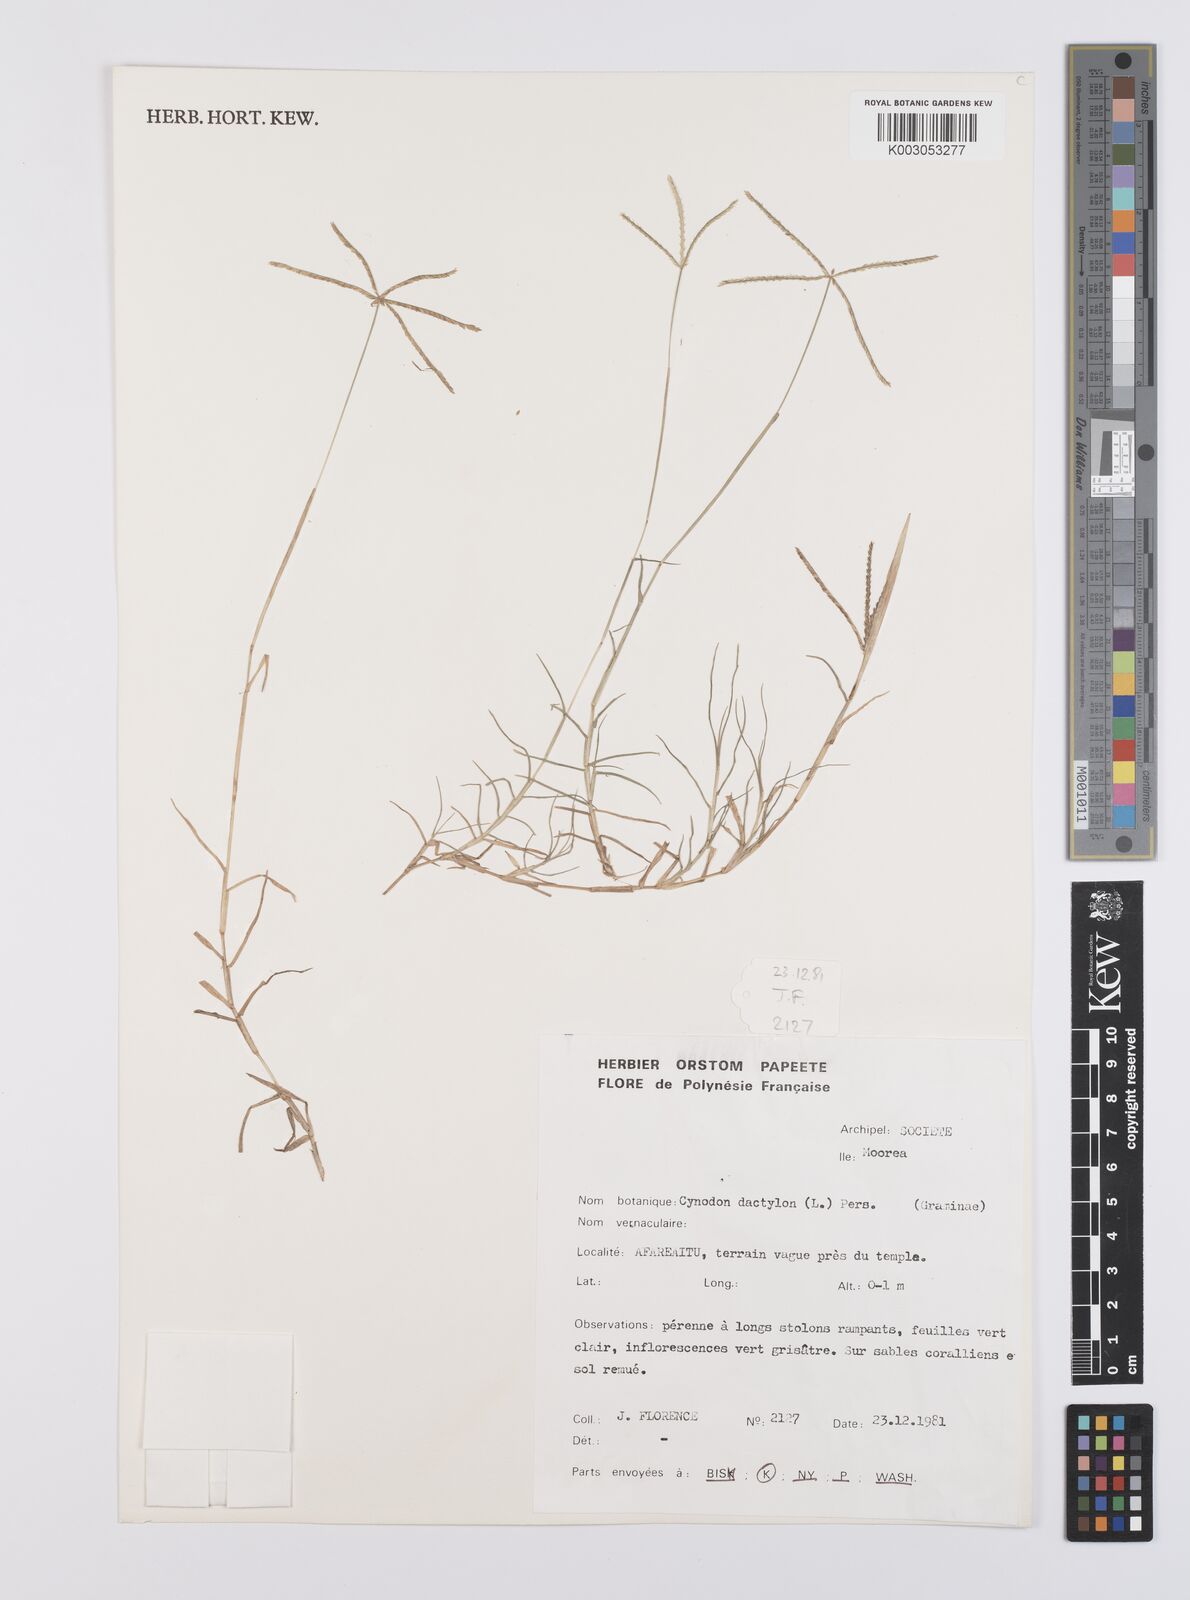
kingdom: Plantae
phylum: Tracheophyta
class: Liliopsida
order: Poales
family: Poaceae
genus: Cynodon
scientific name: Cynodon dactylon
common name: Bermuda grass
